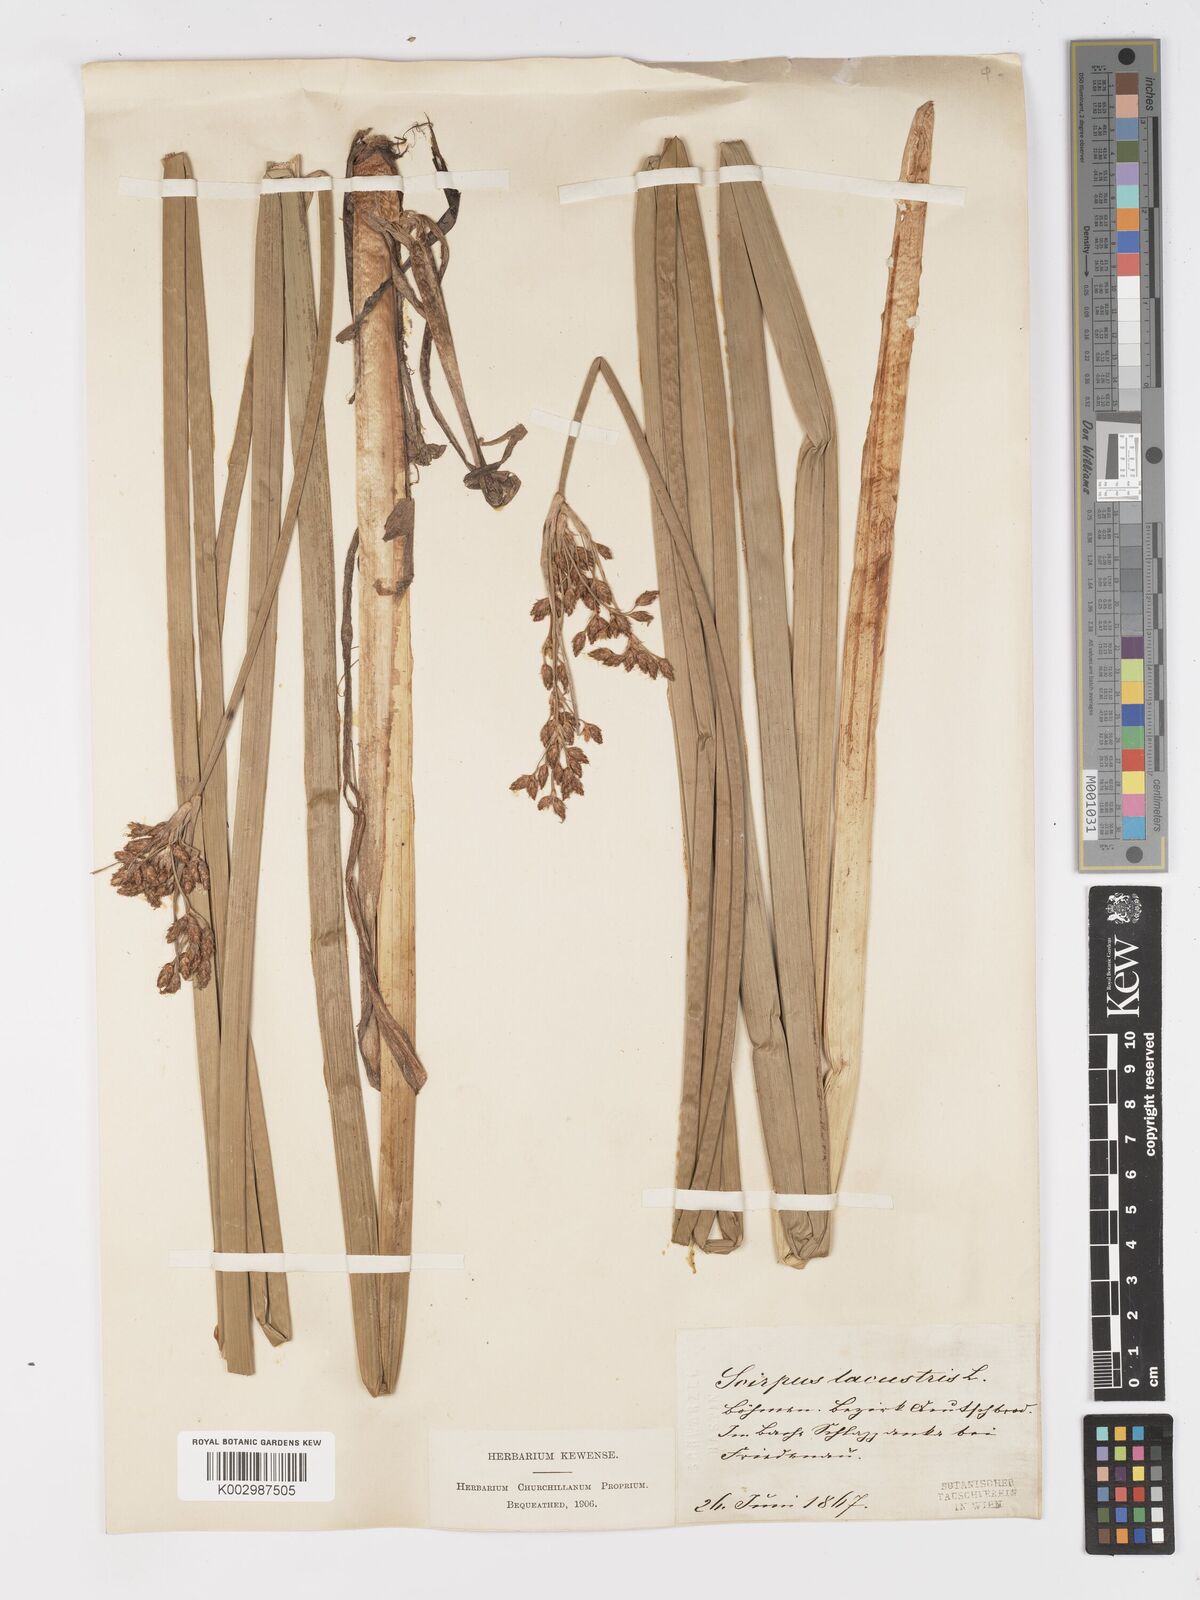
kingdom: Plantae
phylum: Tracheophyta
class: Liliopsida
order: Poales
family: Cyperaceae
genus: Schoenoplectus
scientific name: Schoenoplectus lacustris
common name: Common club-rush
